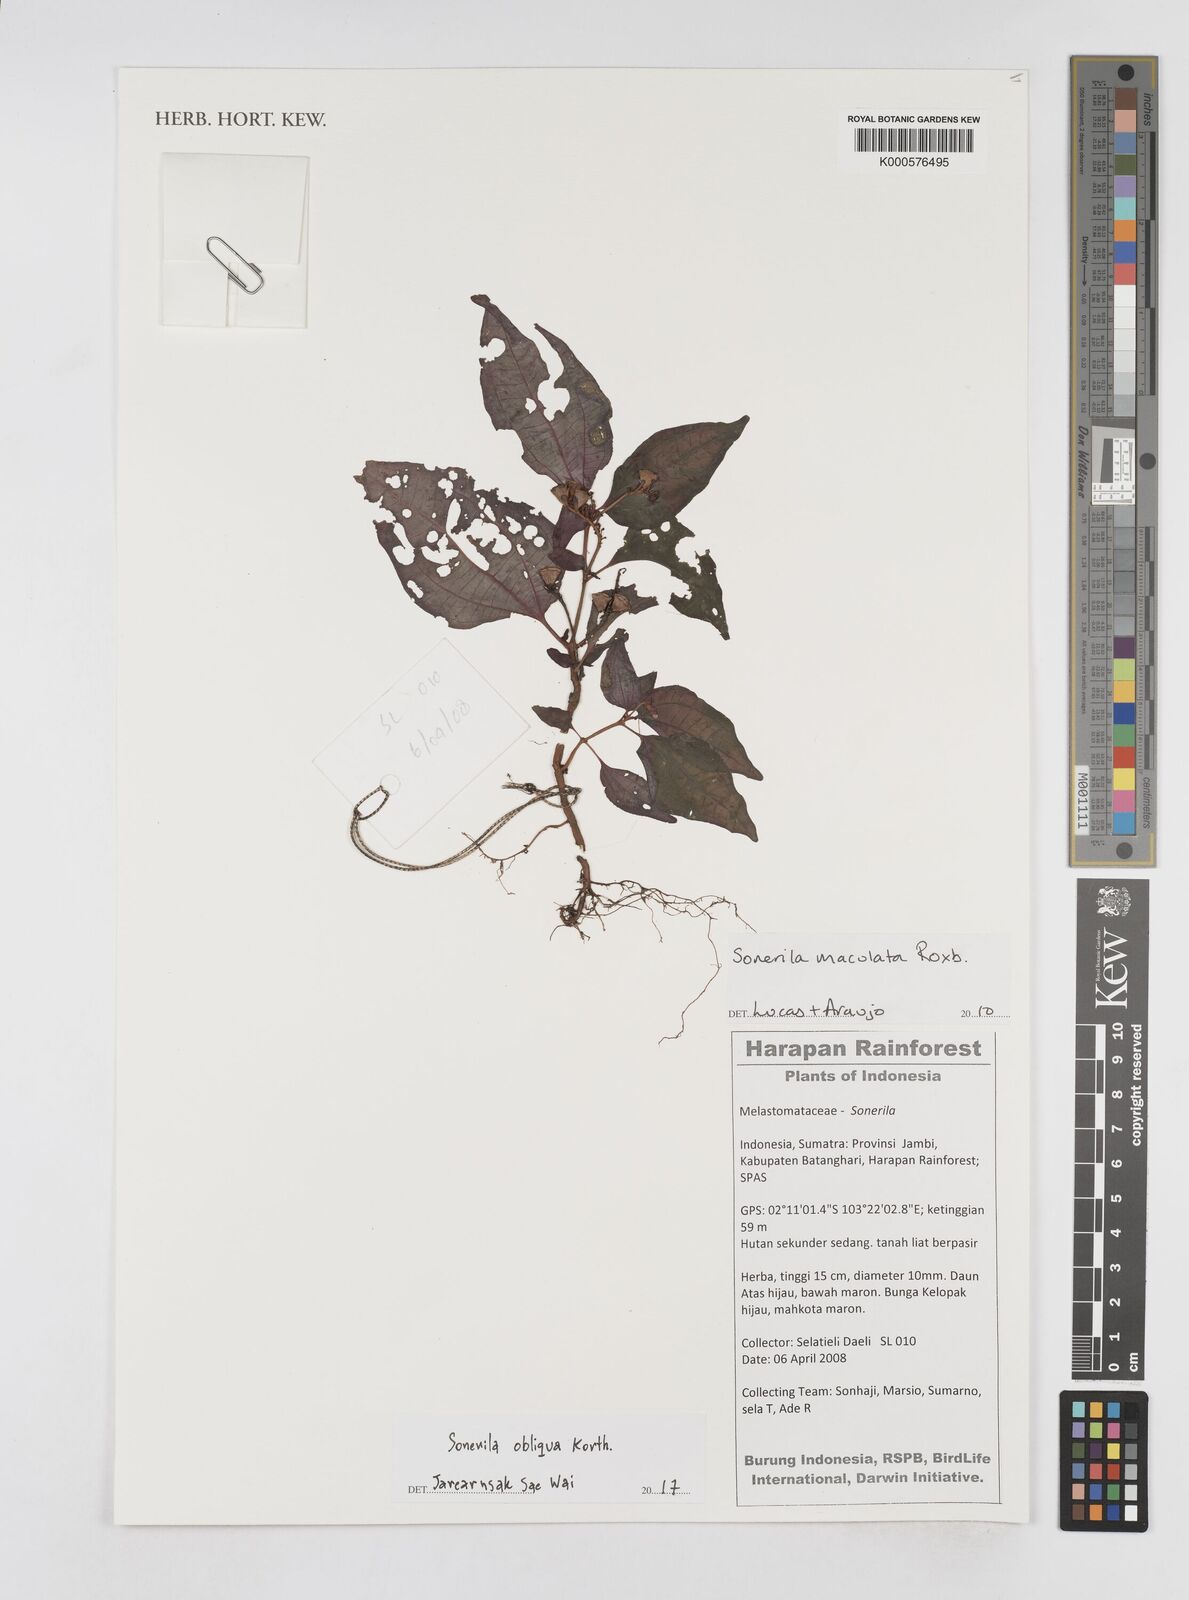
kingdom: Plantae
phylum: Tracheophyta
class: Magnoliopsida
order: Myrtales
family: Melastomataceae
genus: Sonerila
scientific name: Sonerila obliqua
